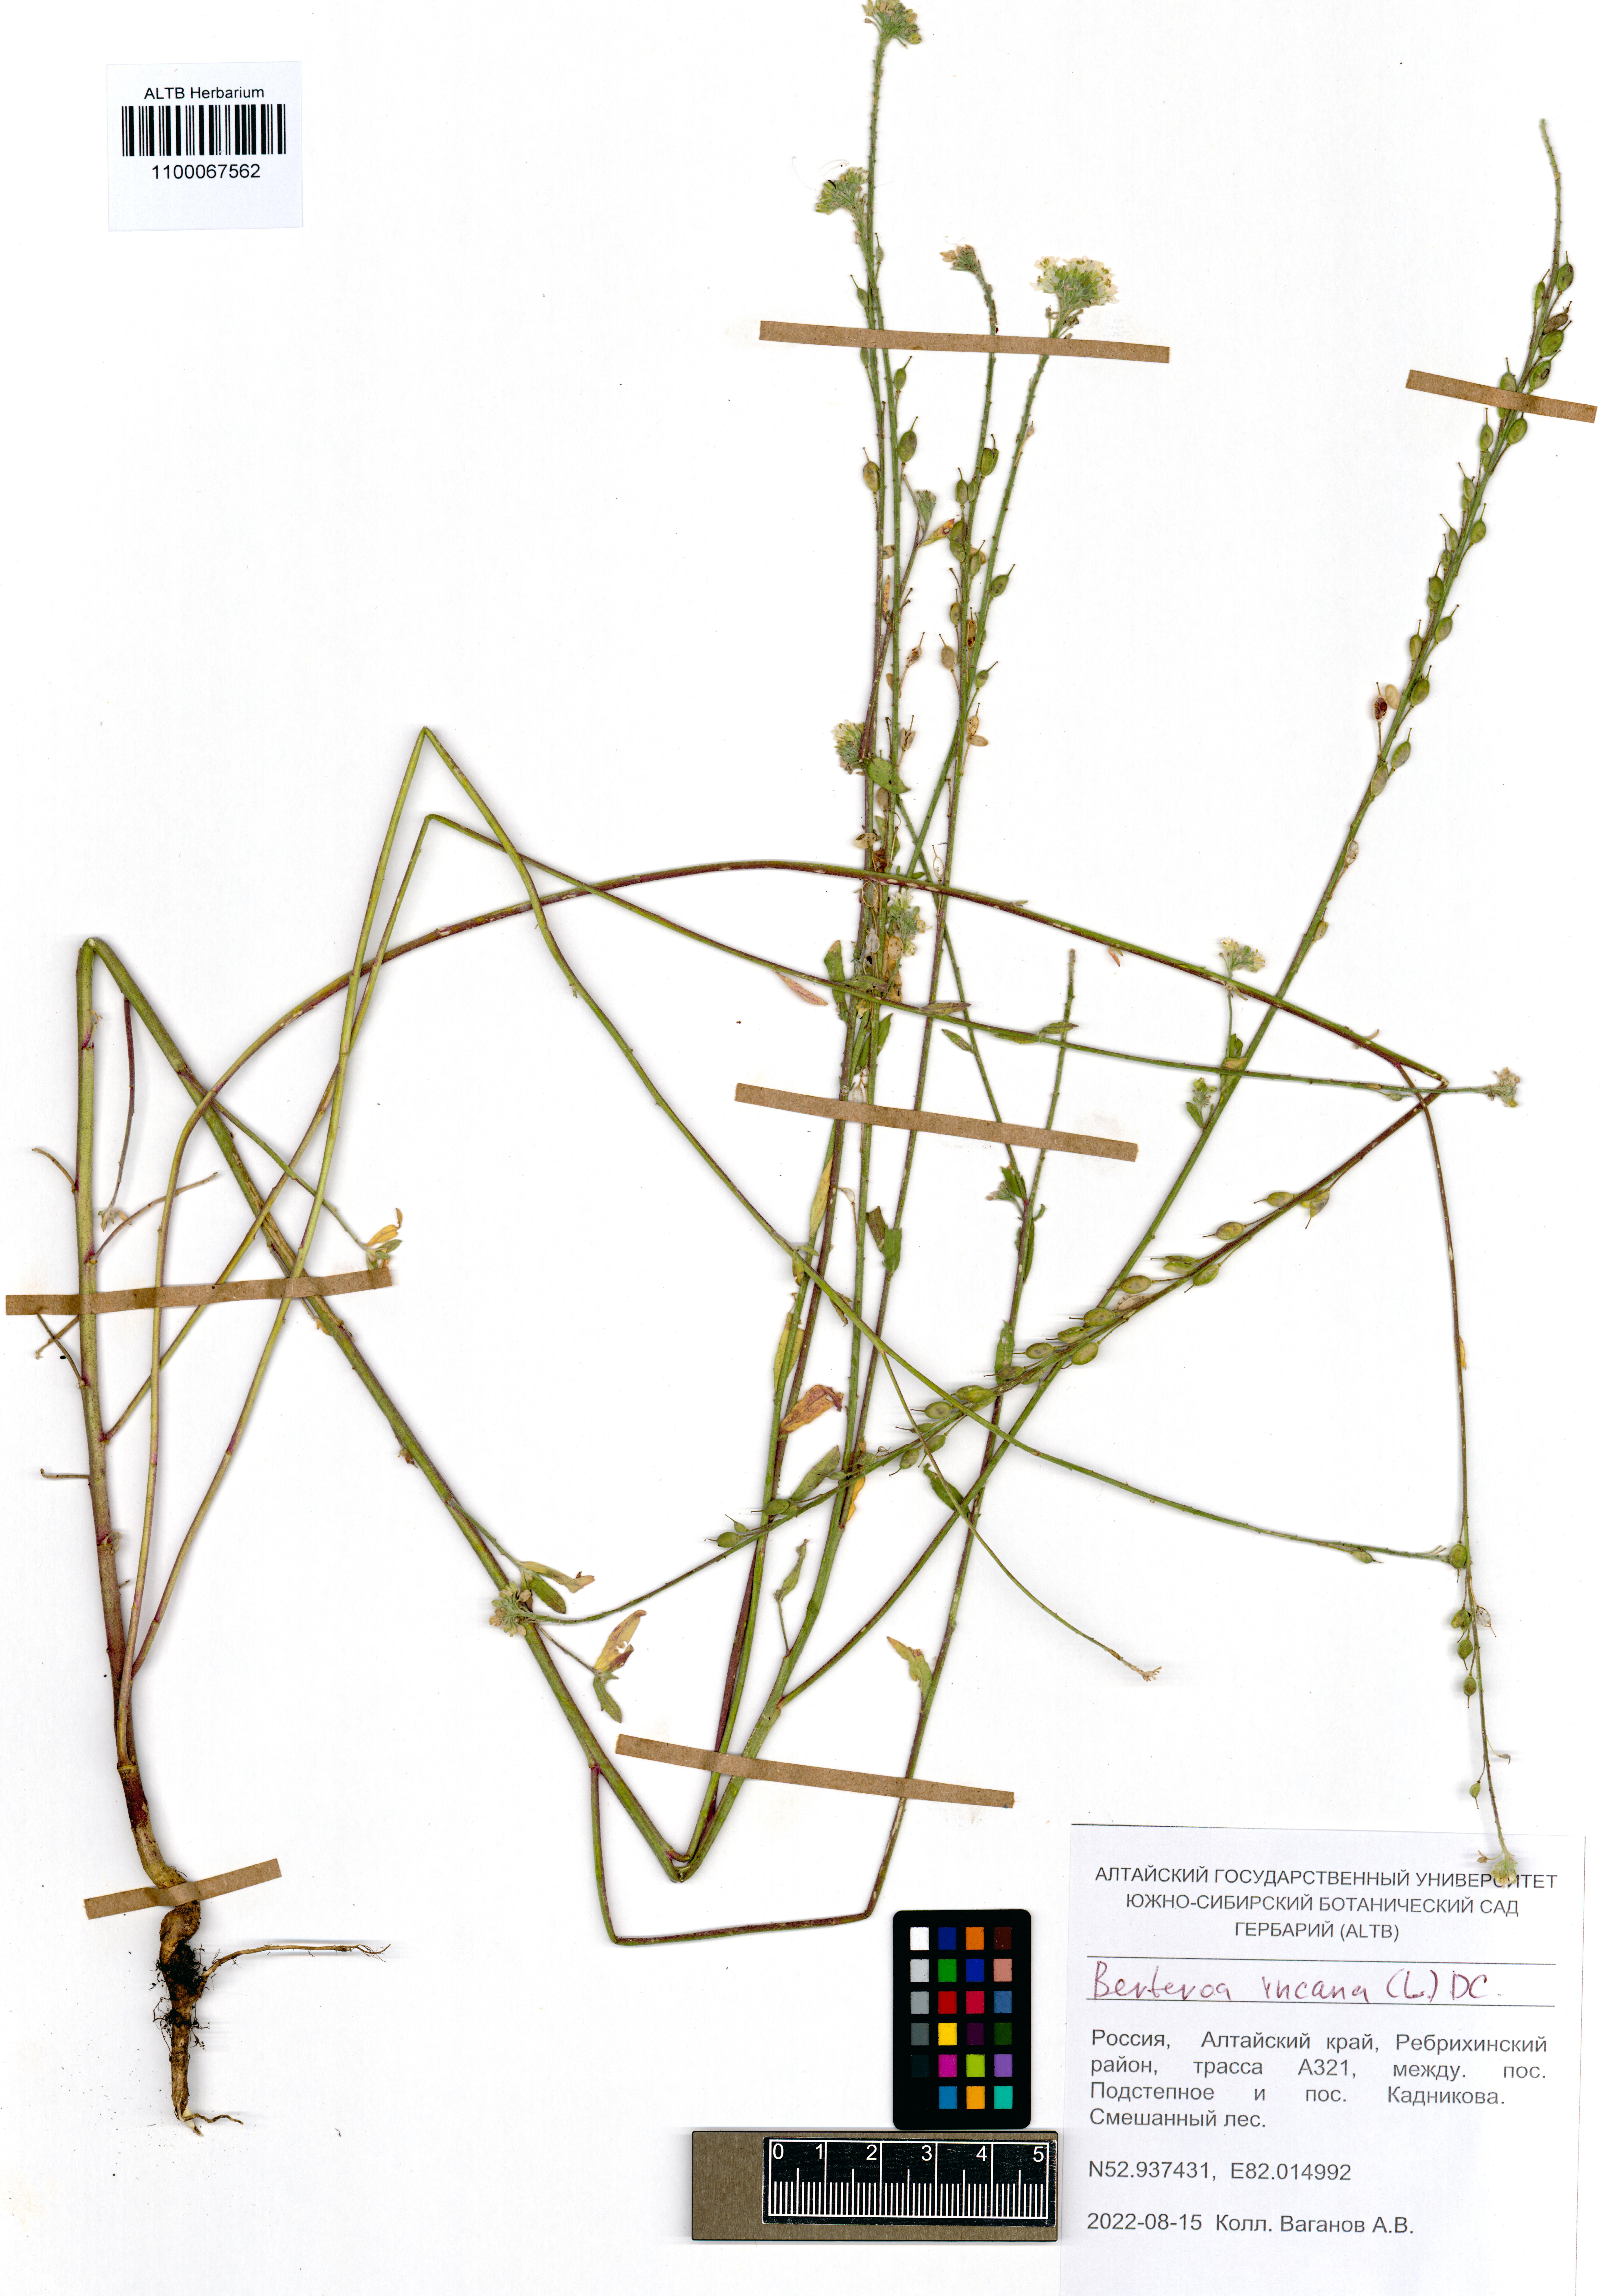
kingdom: Plantae
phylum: Tracheophyta
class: Magnoliopsida
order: Brassicales
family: Brassicaceae
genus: Berteroa
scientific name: Berteroa incana
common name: Hoary alison
